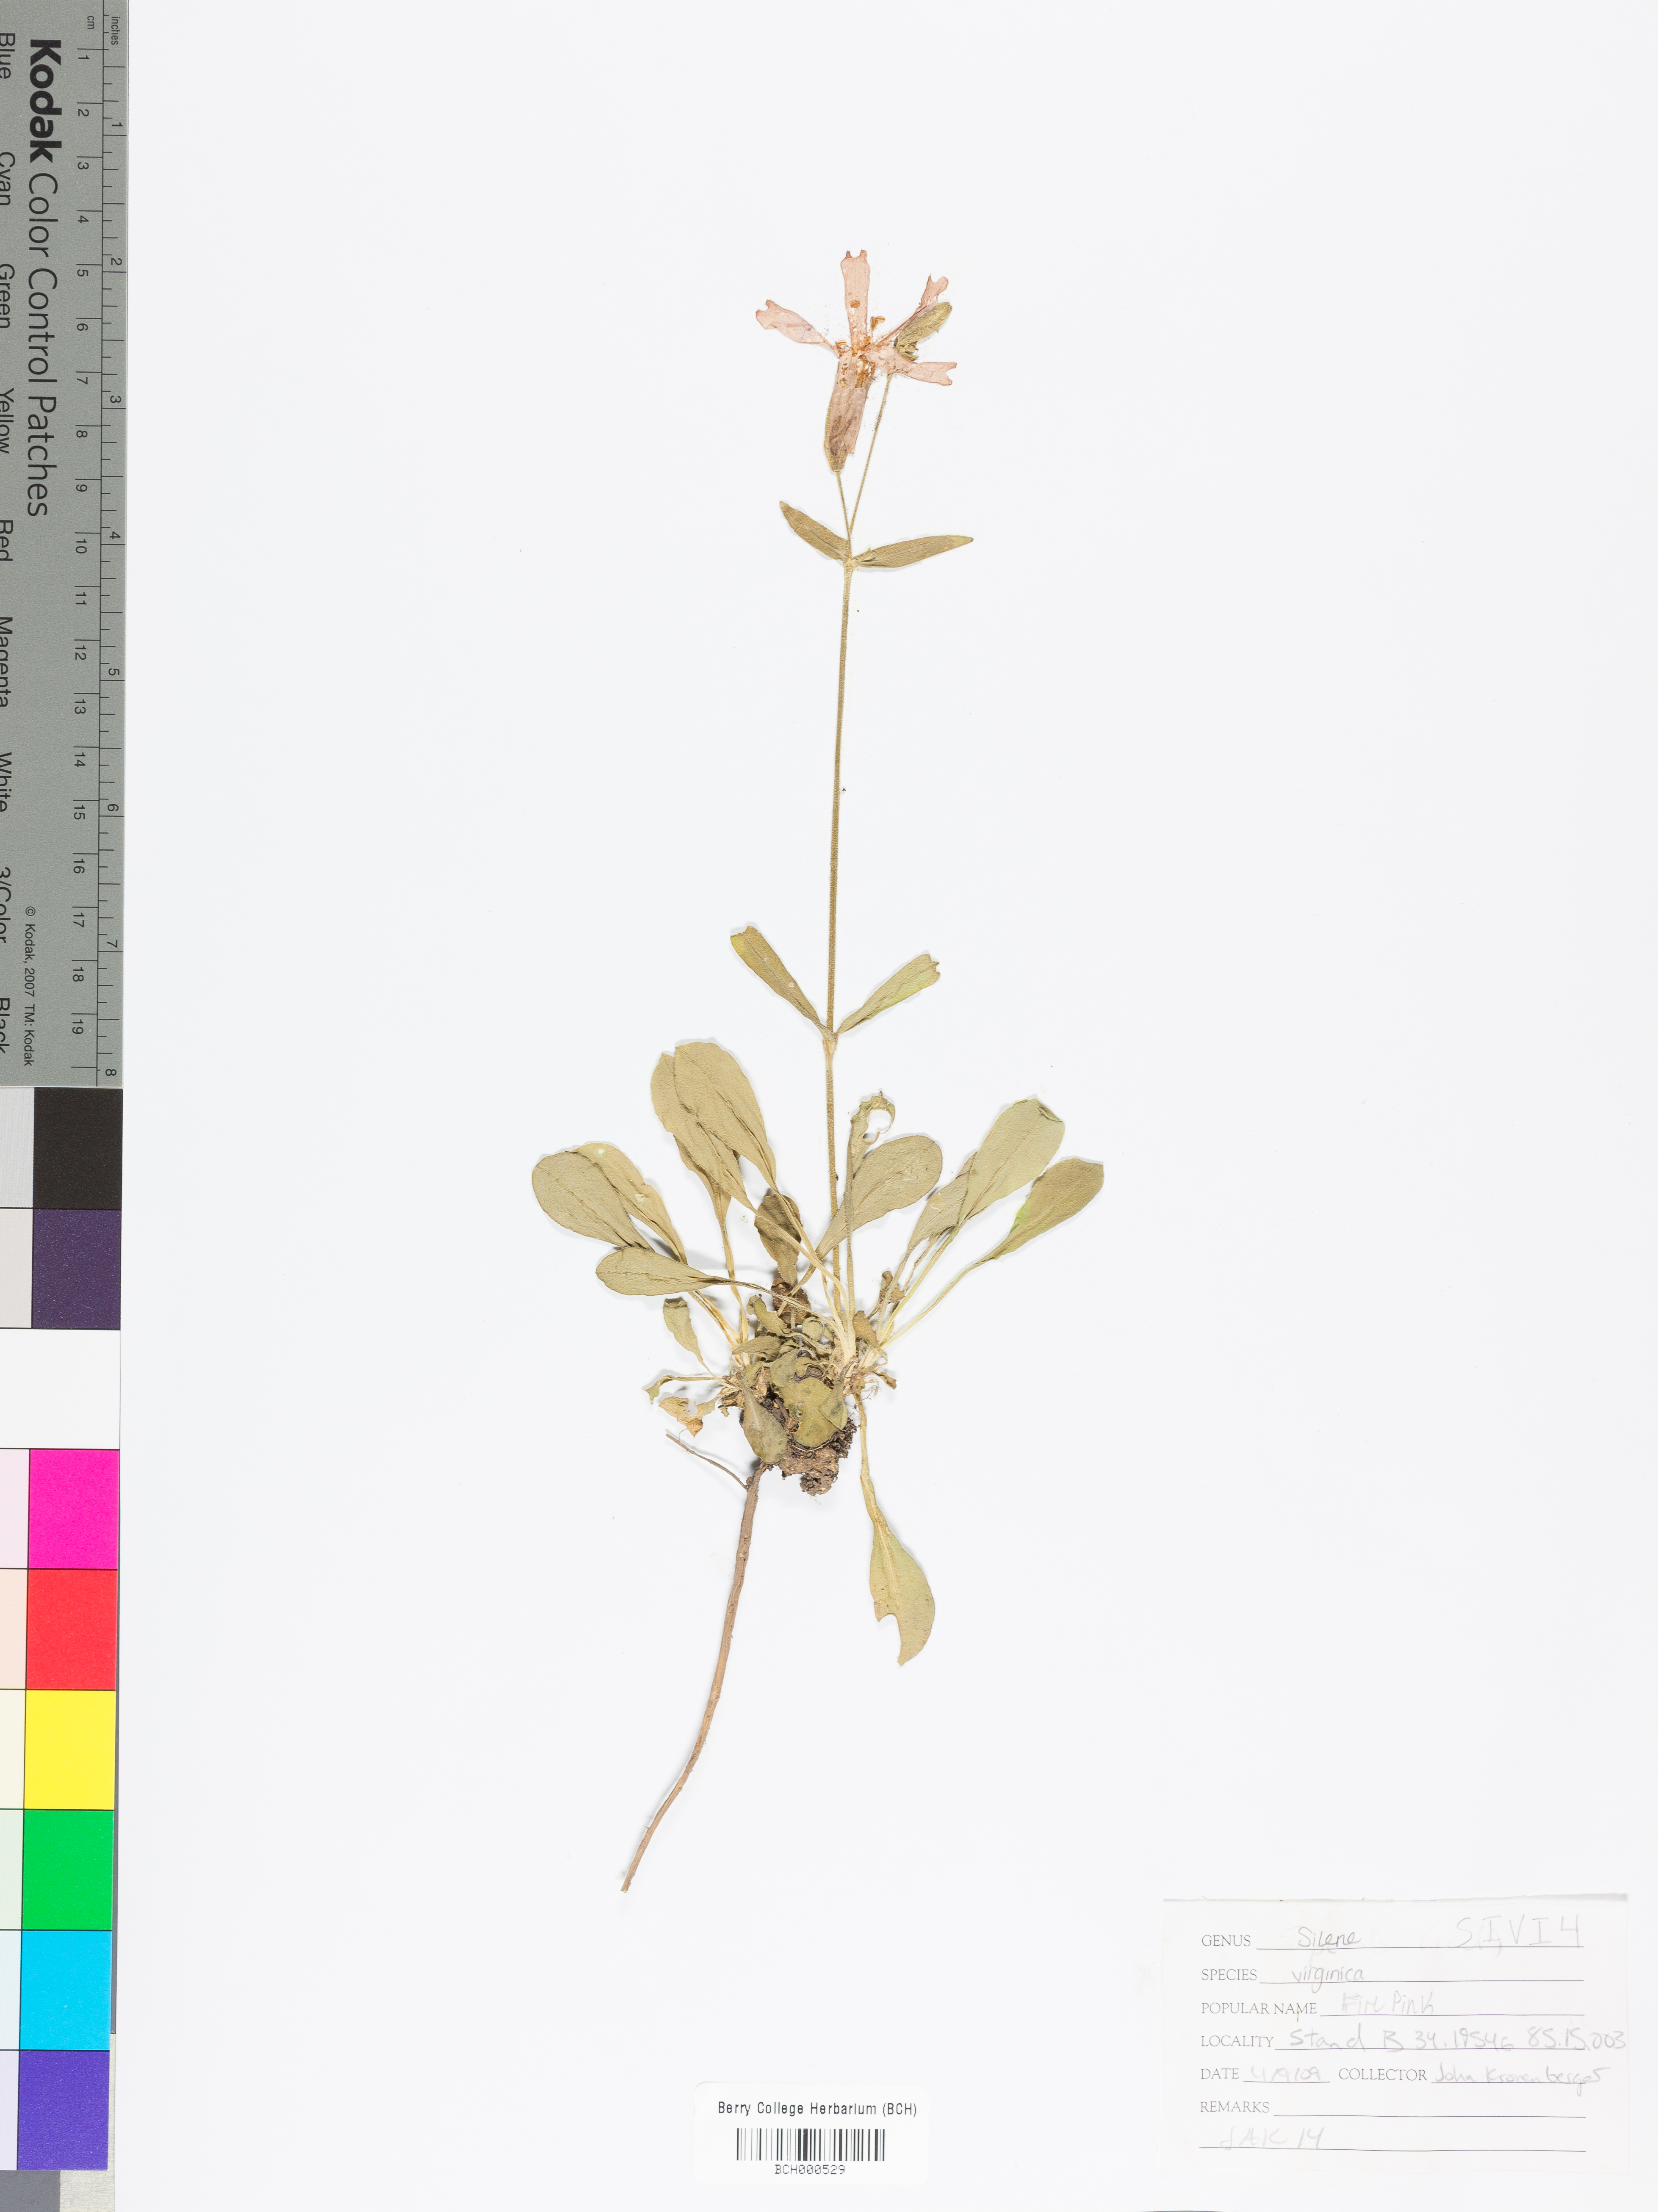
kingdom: Plantae
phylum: Tracheophyta
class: Magnoliopsida
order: Caryophyllales
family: Caryophyllaceae
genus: Silene
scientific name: Silene virginica
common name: Fire-pink
